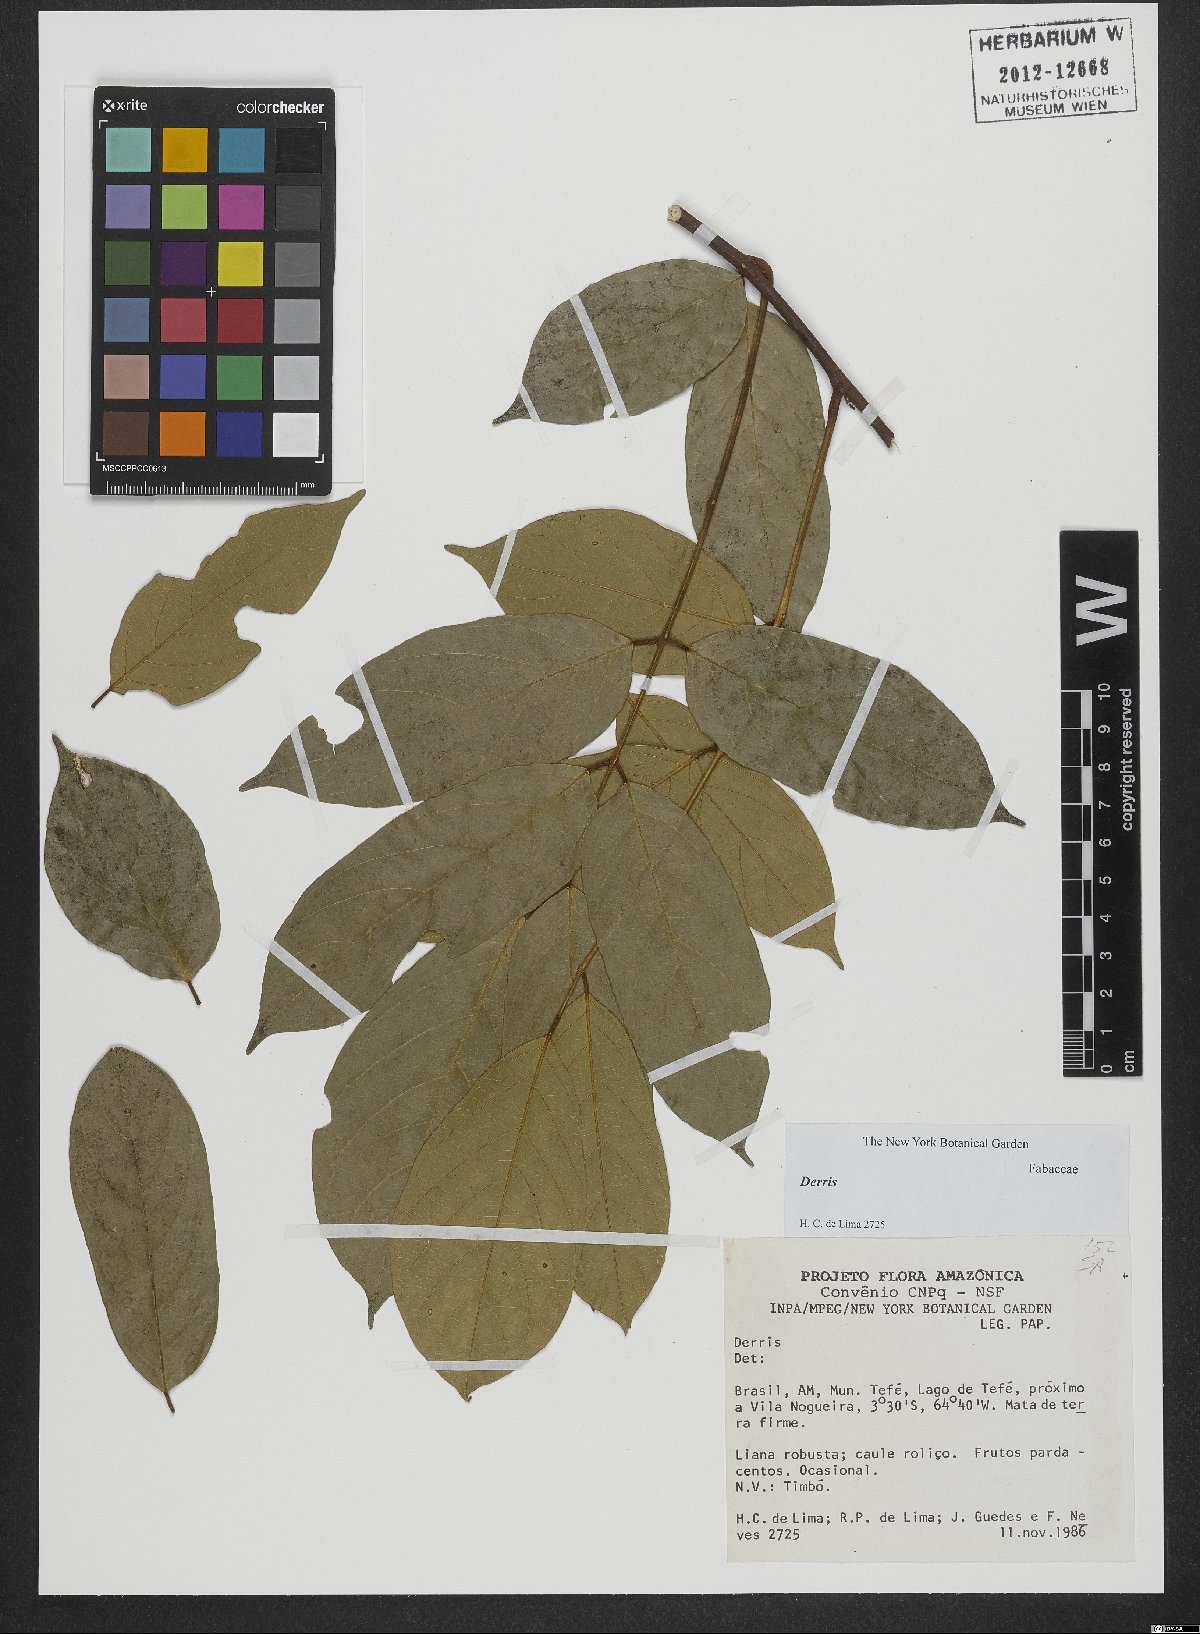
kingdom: Plantae
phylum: Tracheophyta
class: Magnoliopsida
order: Fabales
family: Fabaceae
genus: Derris
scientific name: Derris
